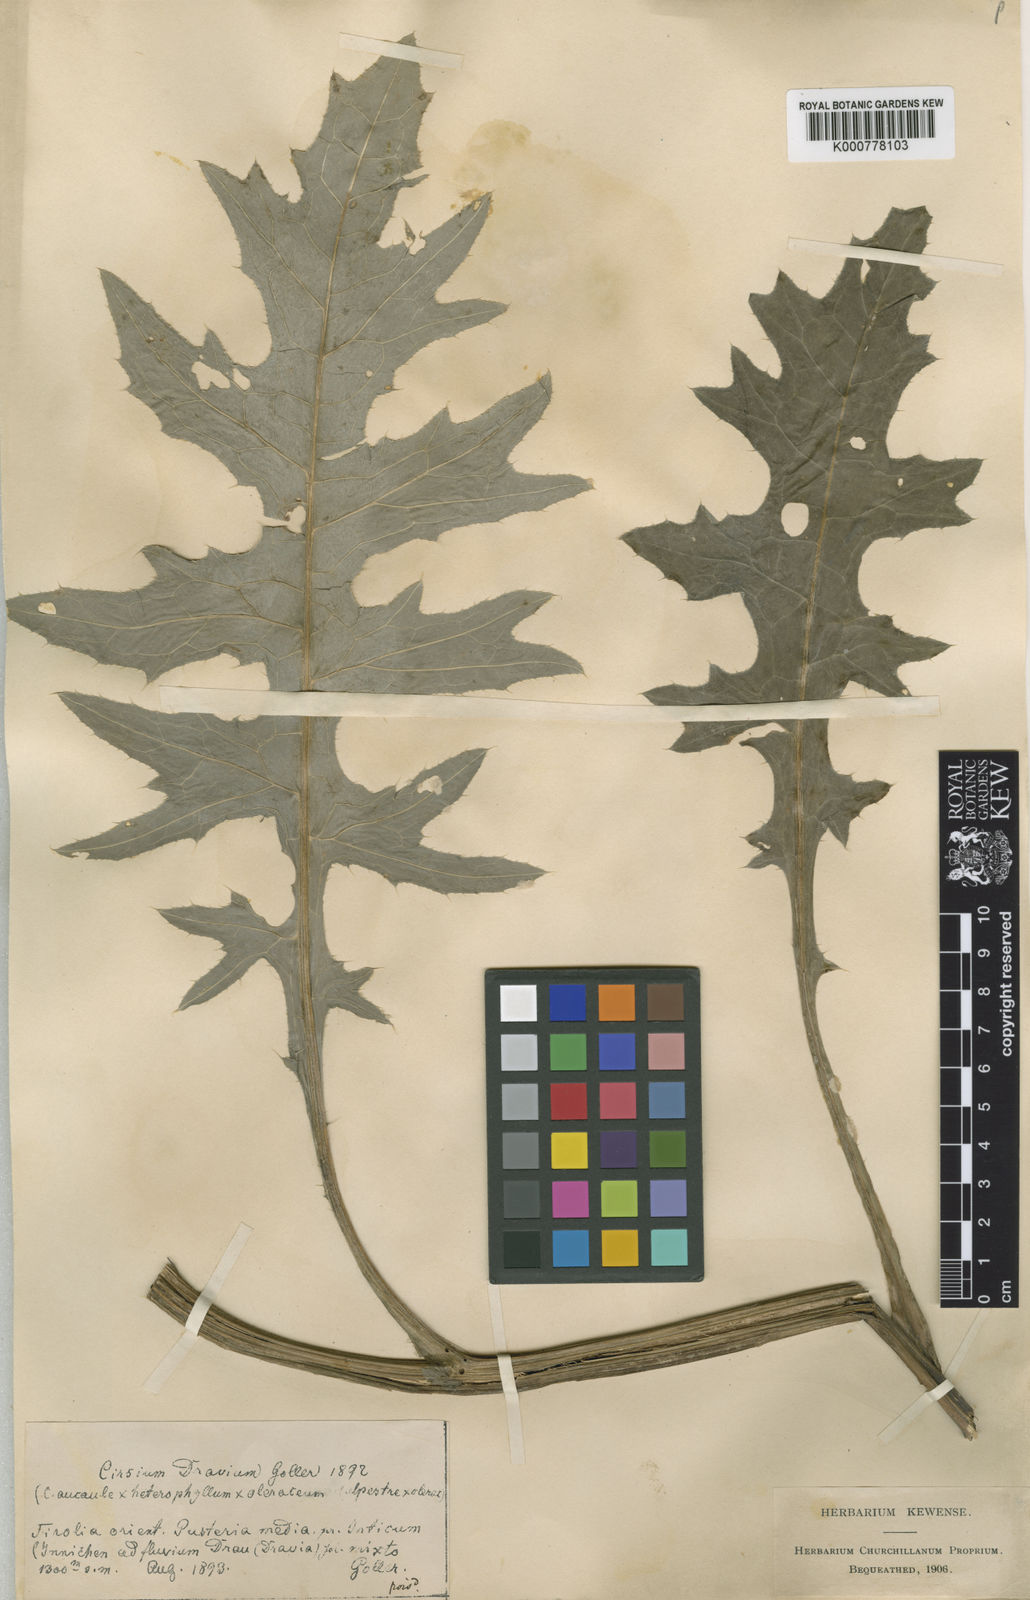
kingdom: Plantae
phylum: Tracheophyta
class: Magnoliopsida
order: Asterales
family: Asteraceae
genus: Cirsium
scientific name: Cirsium
